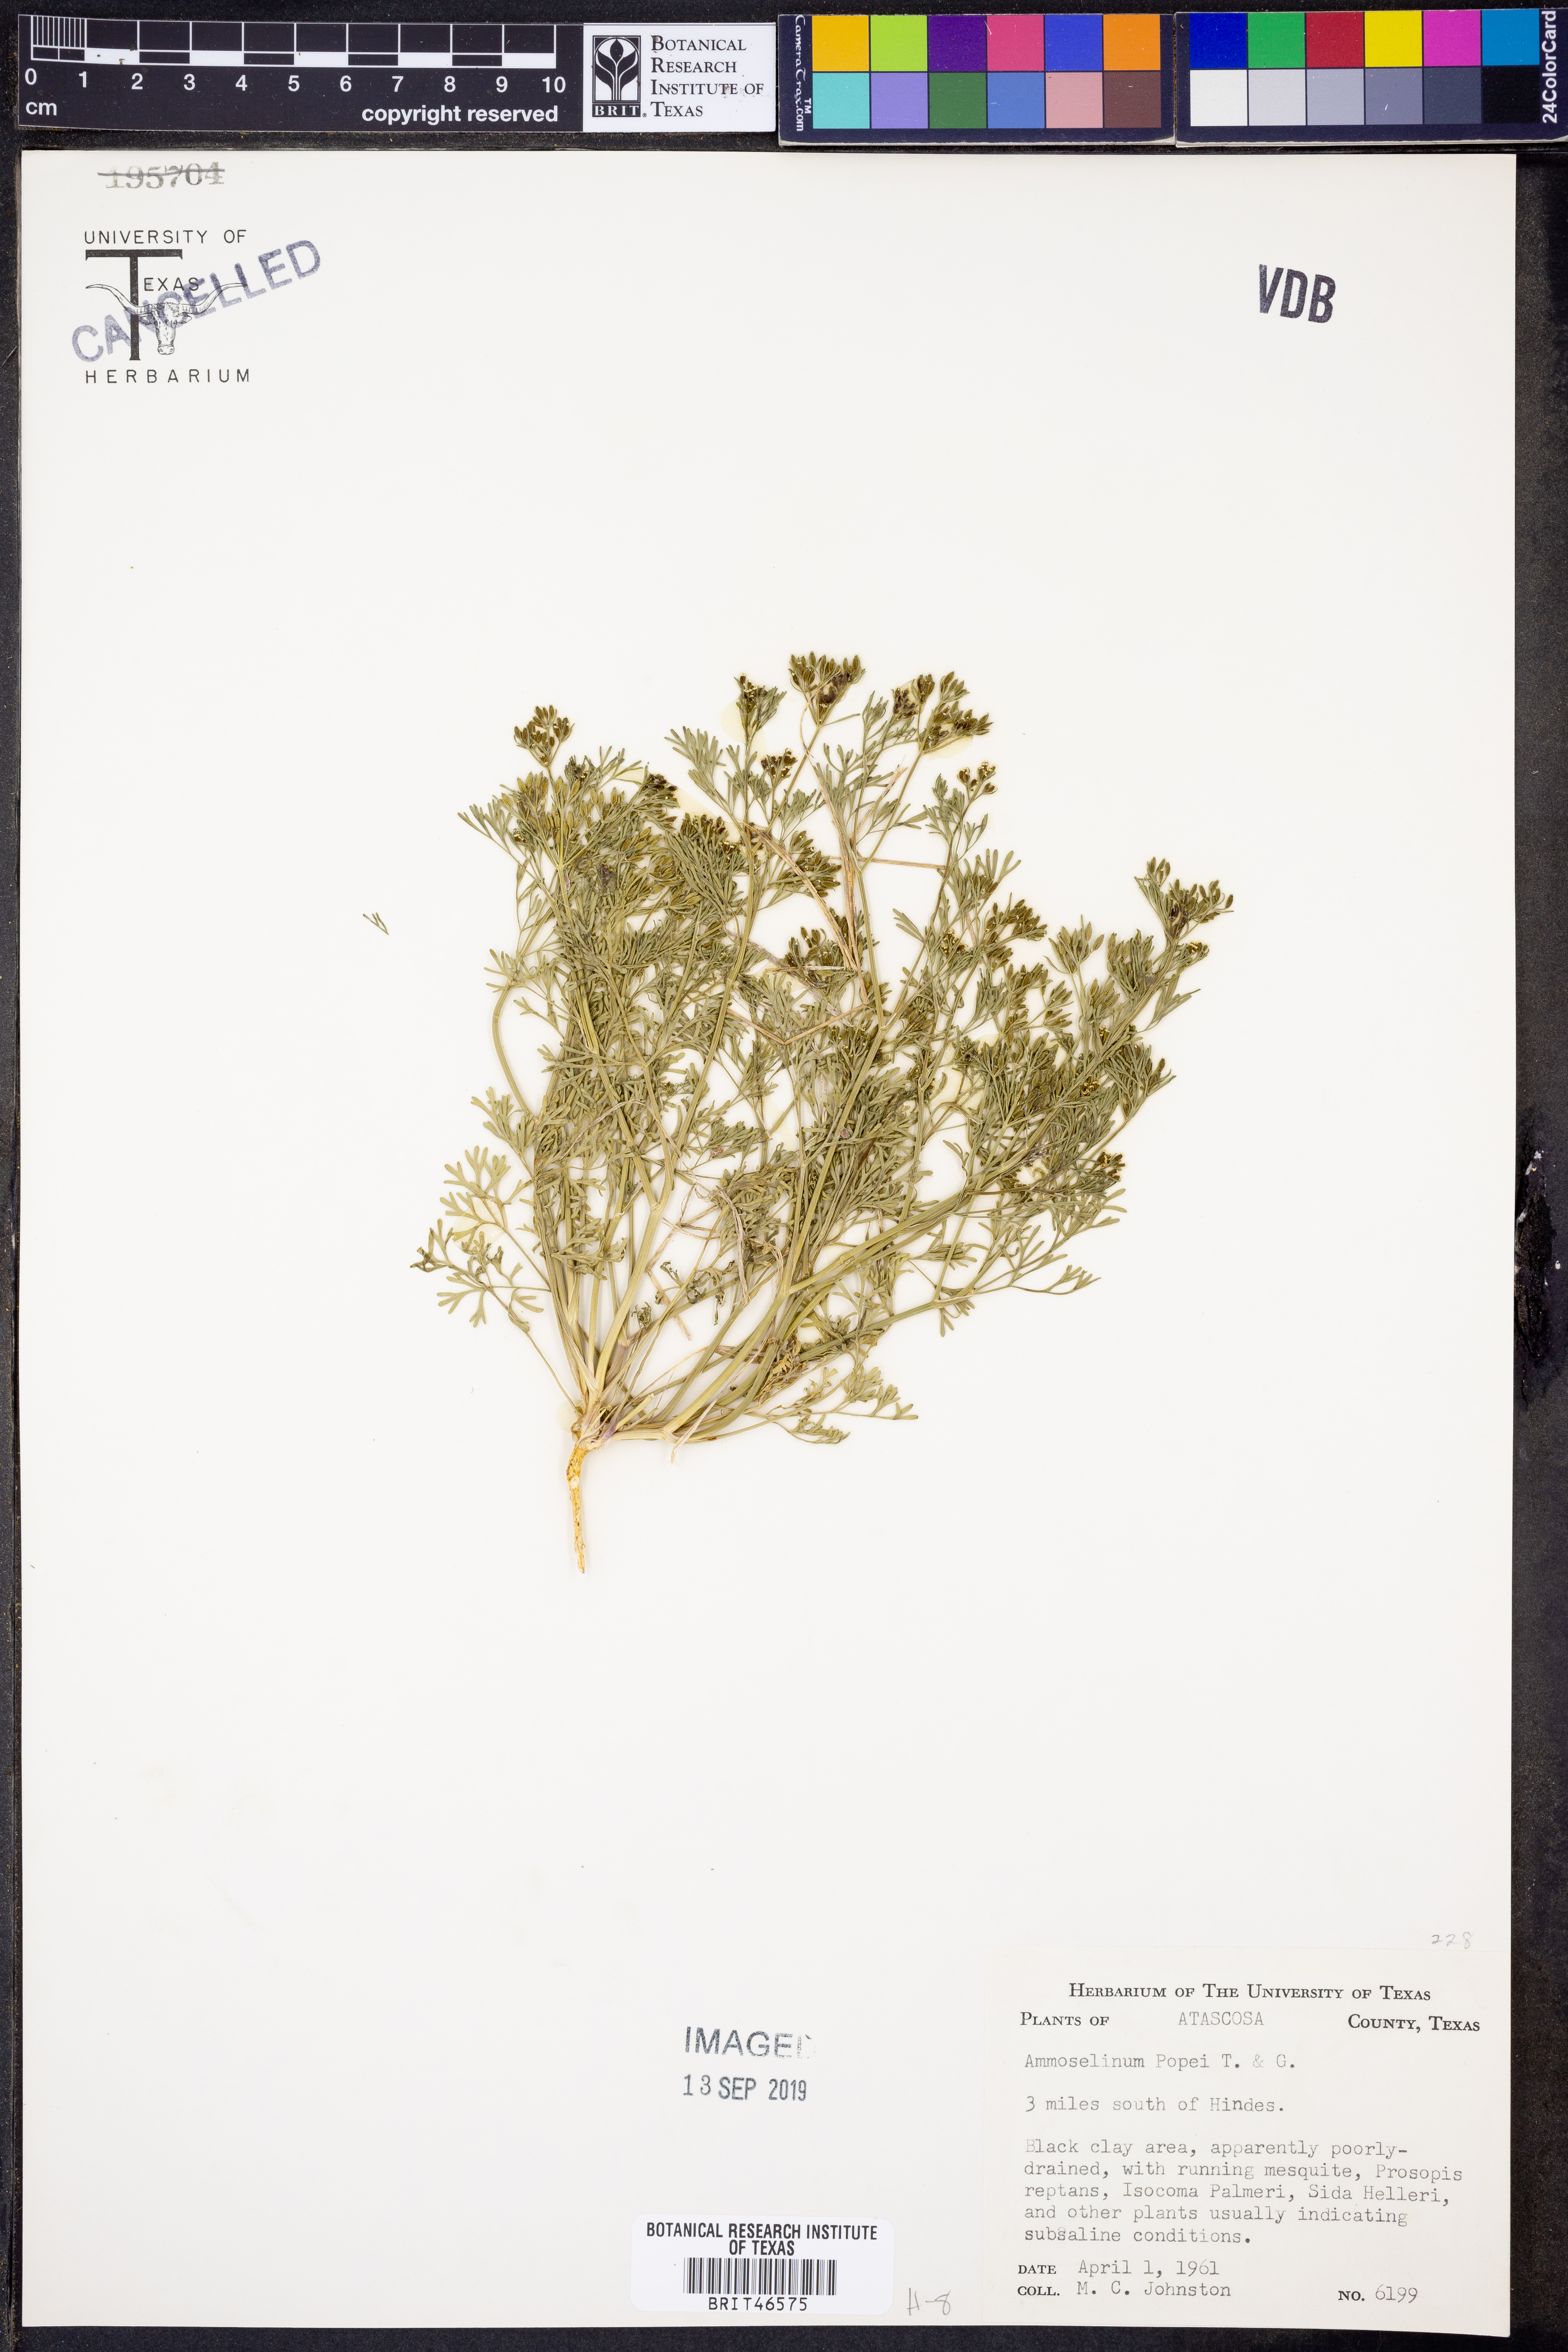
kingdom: Plantae
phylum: Tracheophyta
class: Magnoliopsida
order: Apiales
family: Apiaceae
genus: Ammoselinum
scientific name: Ammoselinum popei
